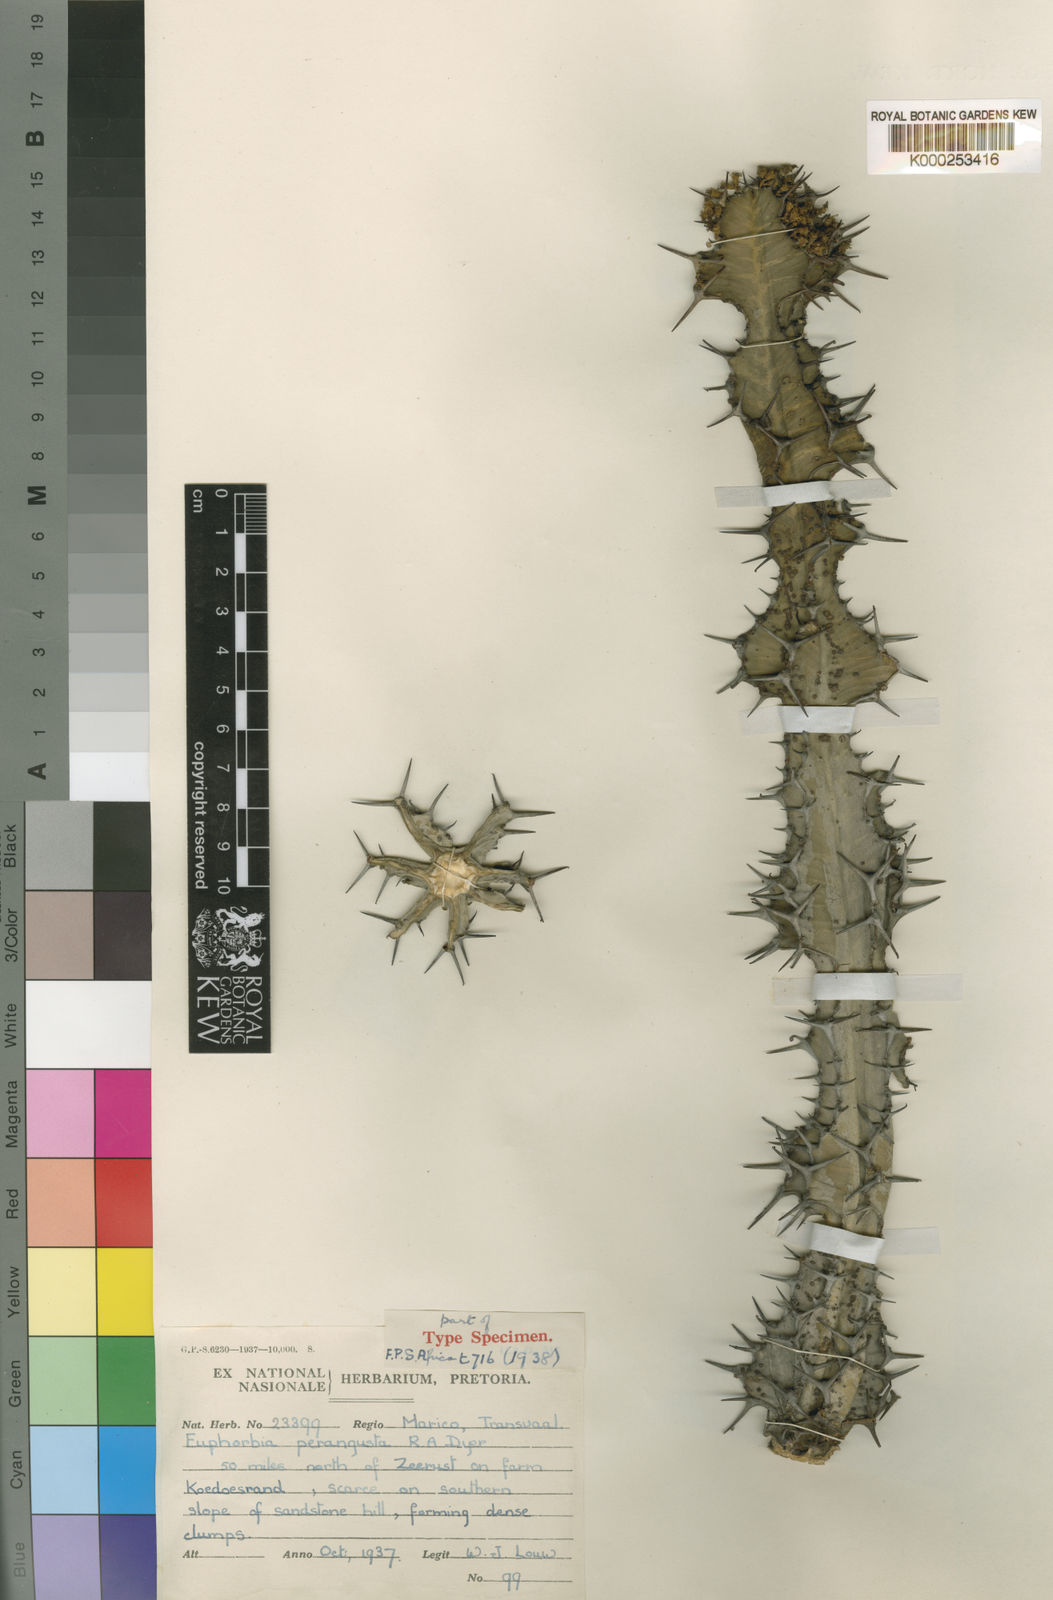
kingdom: Plantae
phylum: Tracheophyta
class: Magnoliopsida
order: Malpighiales
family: Euphorbiaceae
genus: Euphorbia
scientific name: Euphorbia perangusta
